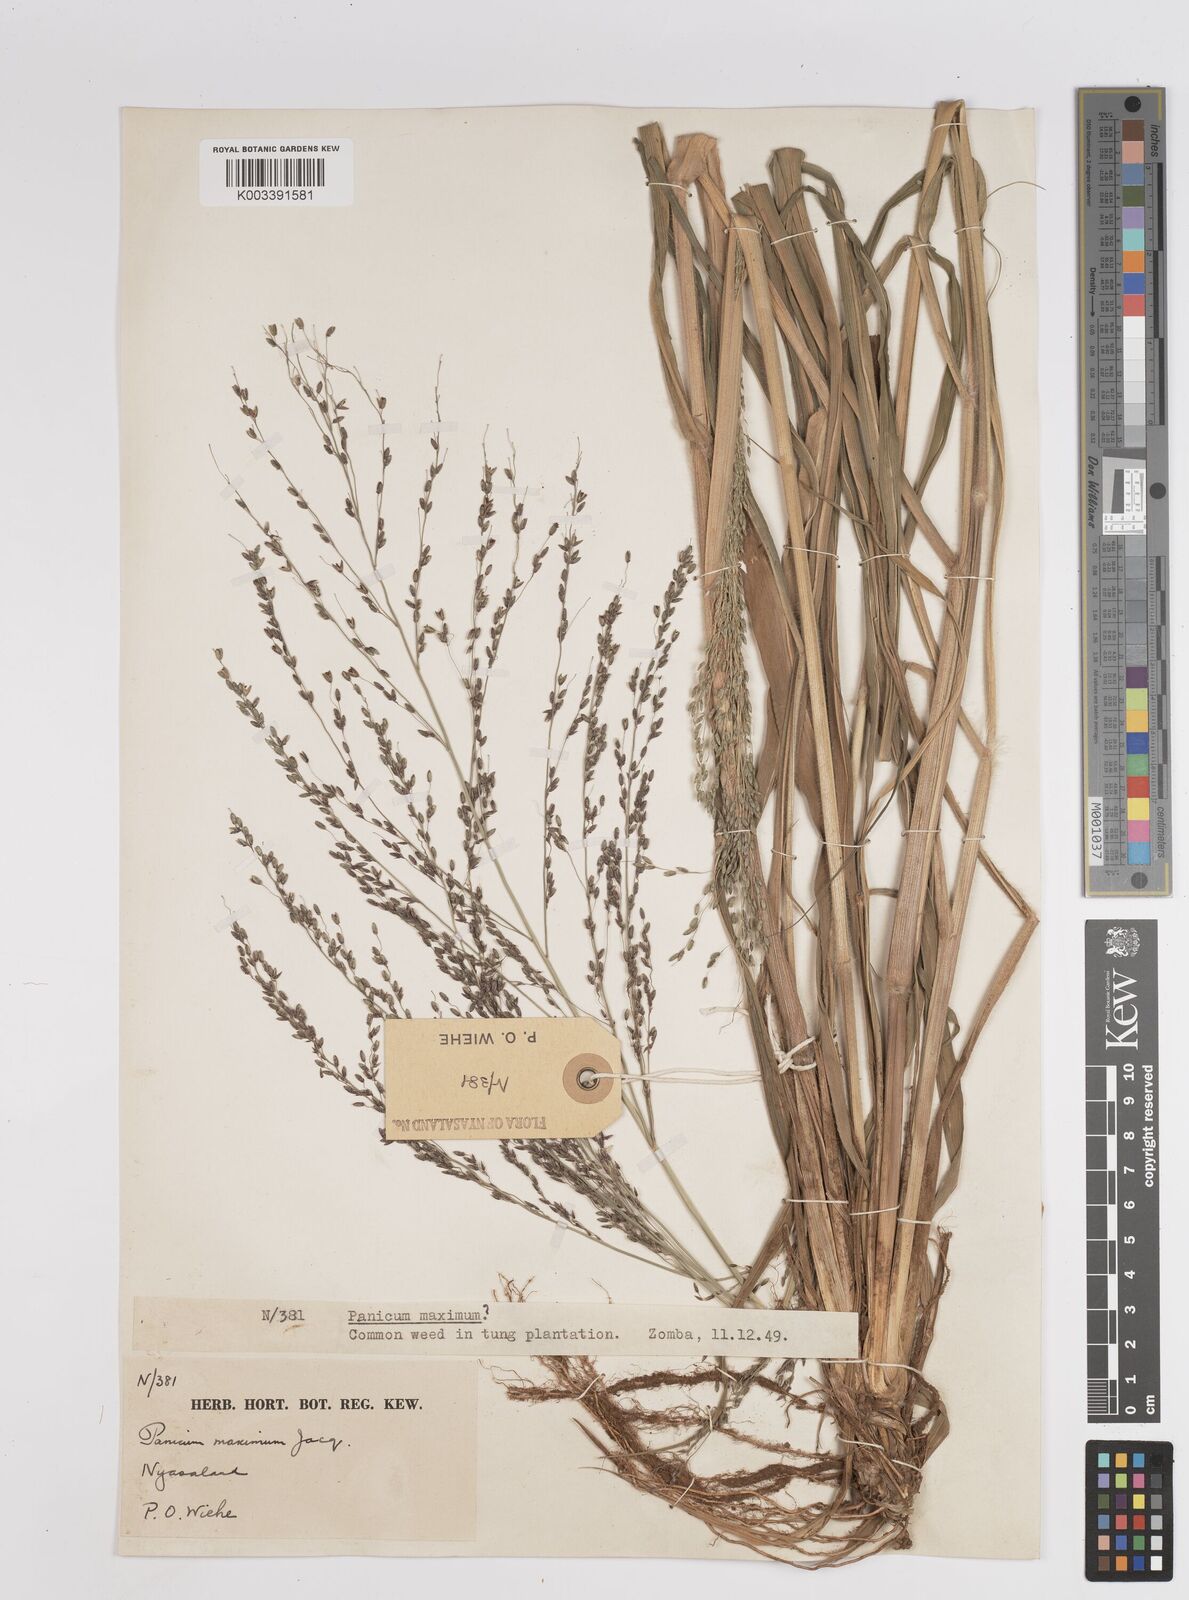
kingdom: Plantae
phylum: Tracheophyta
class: Liliopsida
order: Poales
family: Poaceae
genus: Megathyrsus
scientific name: Megathyrsus maximus
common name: Guineagrass
